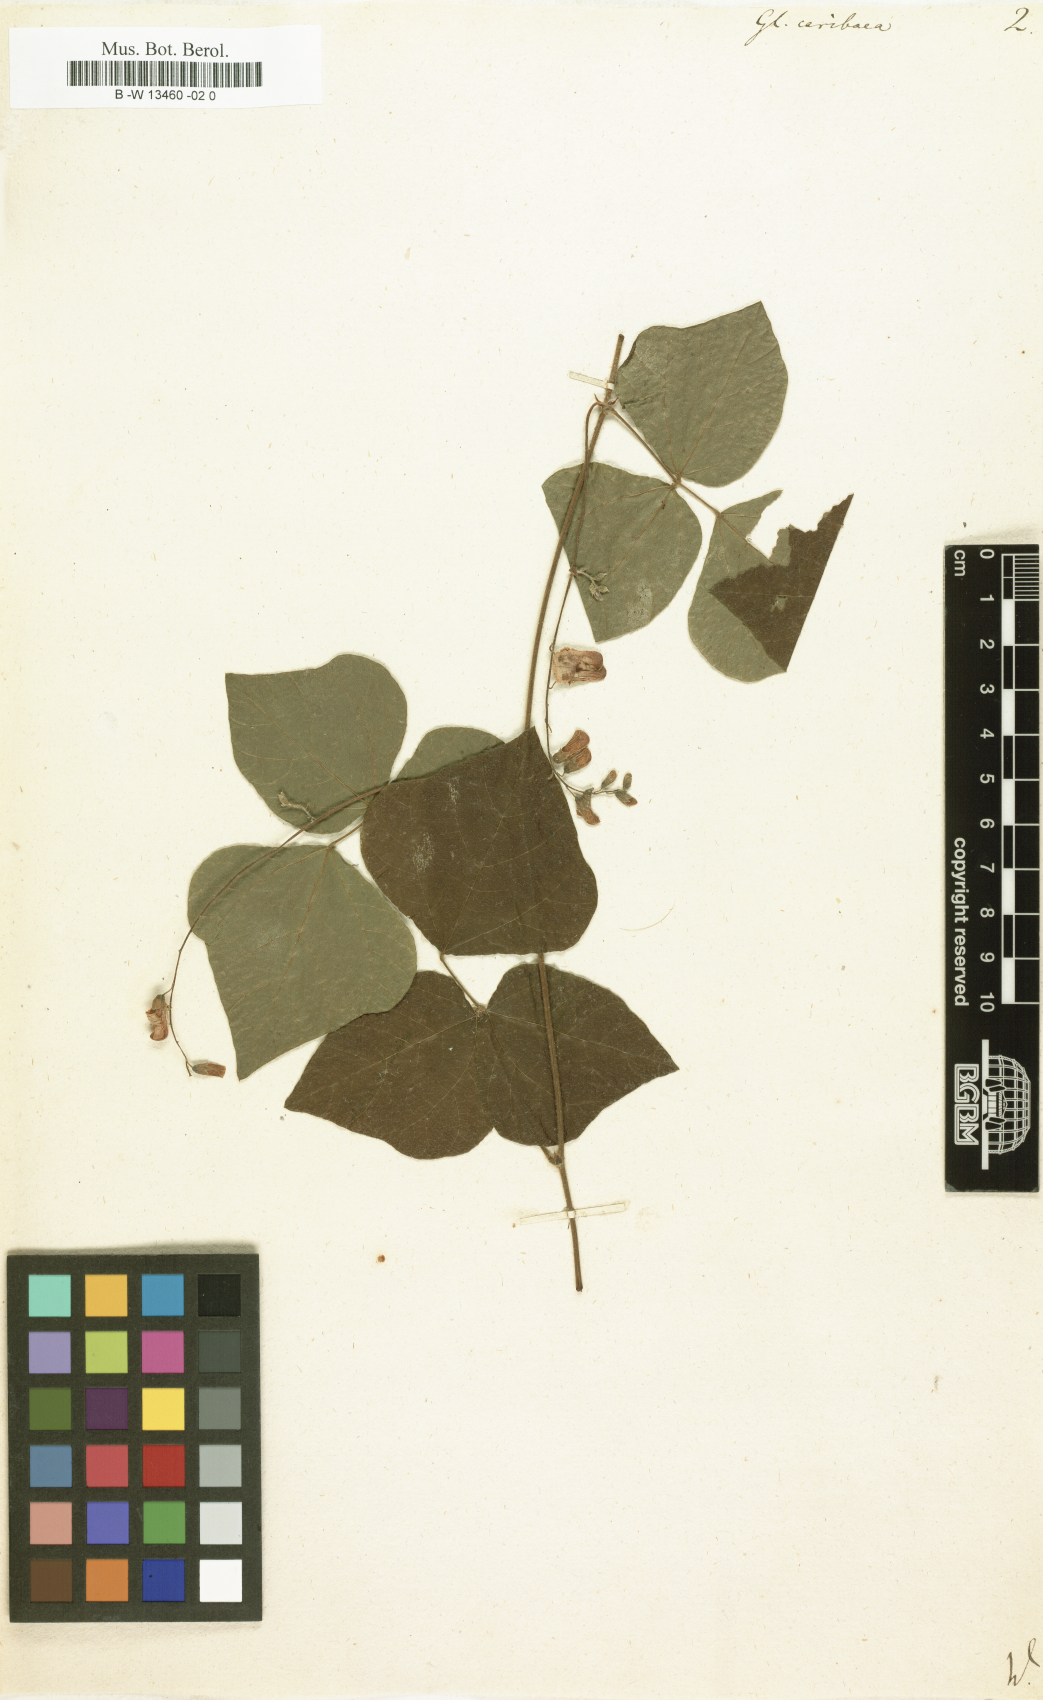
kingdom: Plantae
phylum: Tracheophyta
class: Magnoliopsida
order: Fabales
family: Fabaceae
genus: Rhynchosia
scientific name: Rhynchosia caribaea
